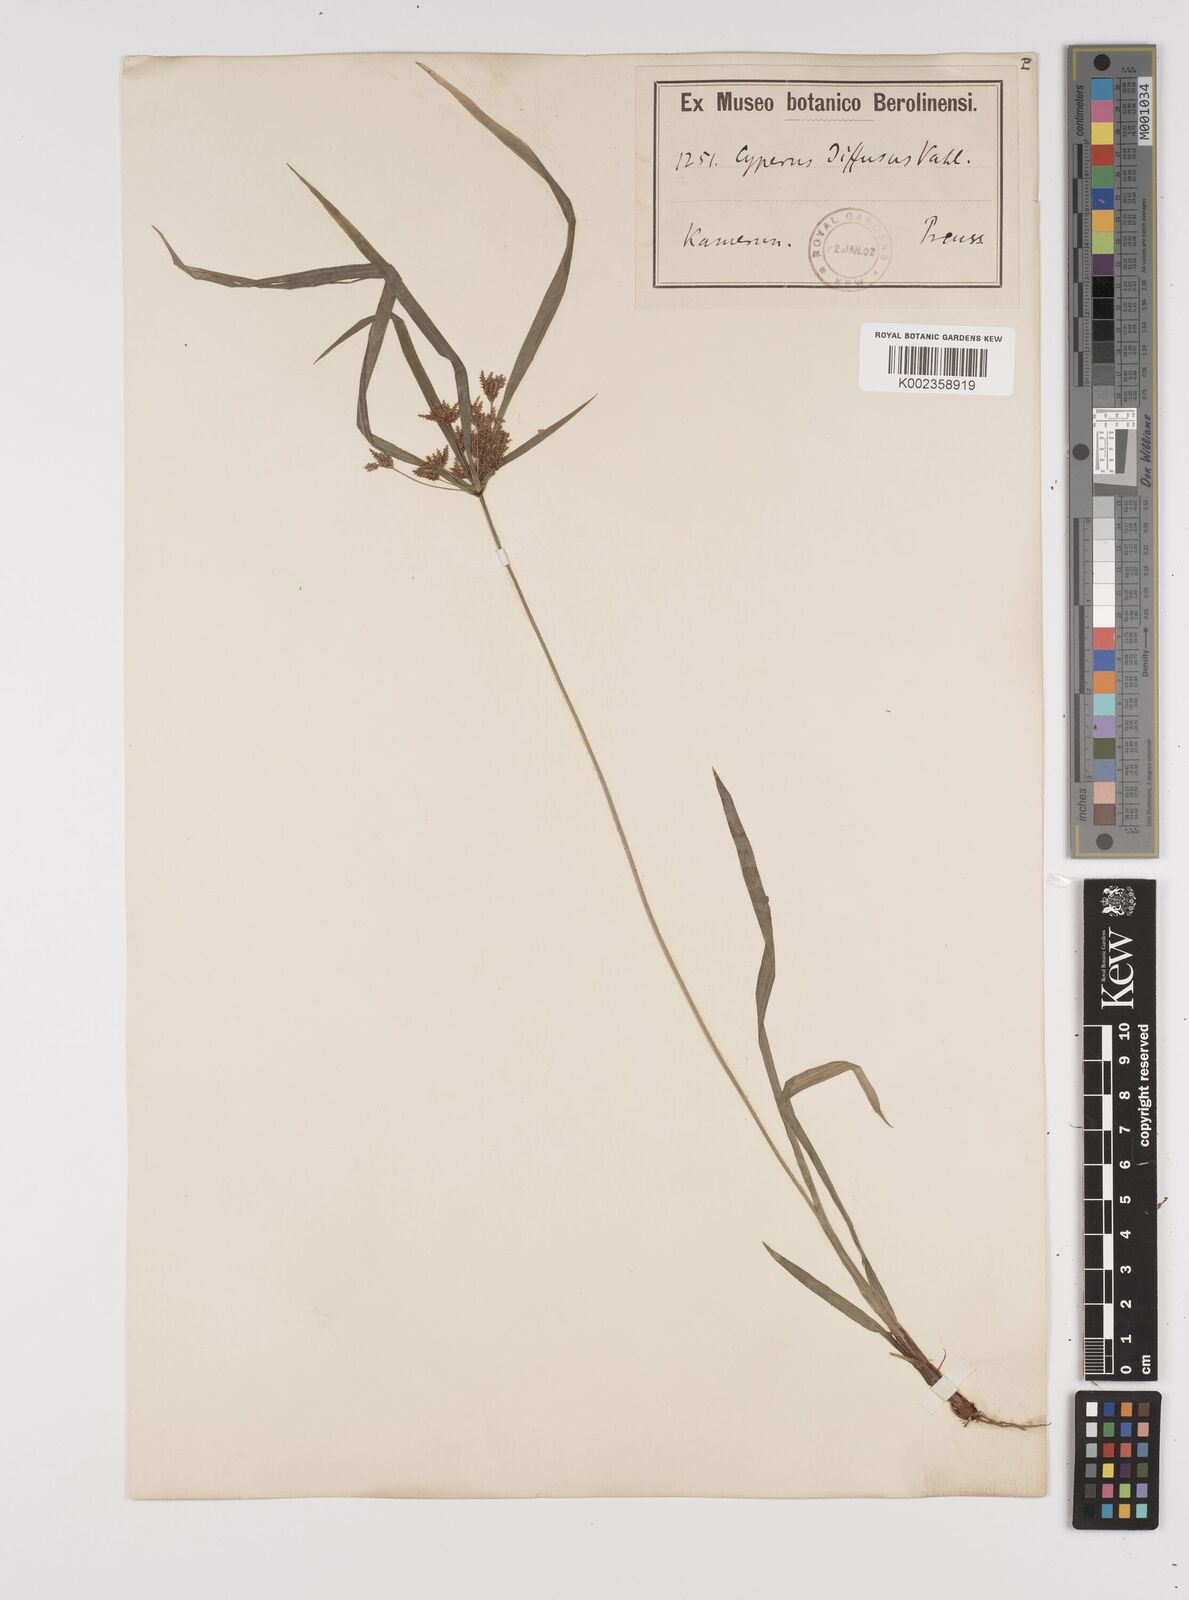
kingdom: Plantae
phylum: Tracheophyta
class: Liliopsida
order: Poales
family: Cyperaceae
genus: Cyperus
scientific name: Cyperus buchholzii
